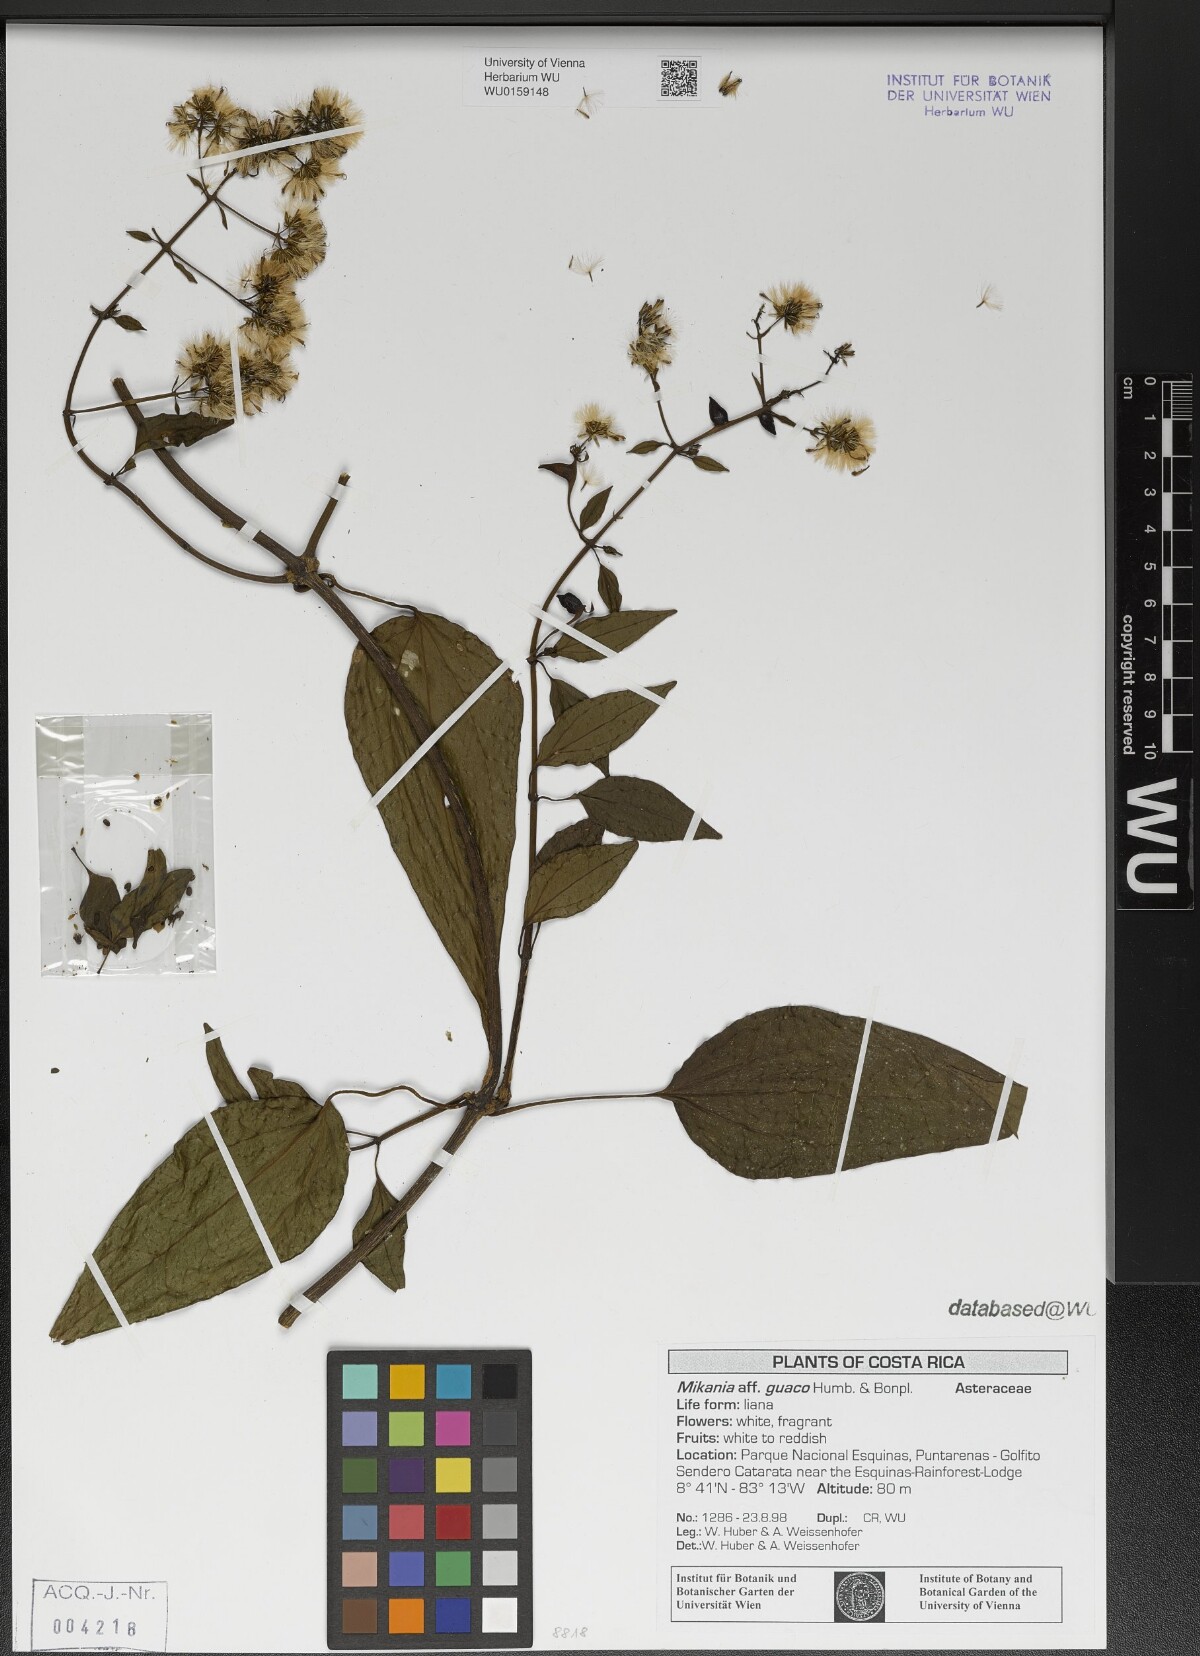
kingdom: Plantae
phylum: Tracheophyta
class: Magnoliopsida
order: Asterales
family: Asteraceae
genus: Mikania
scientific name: Mikania guaco
